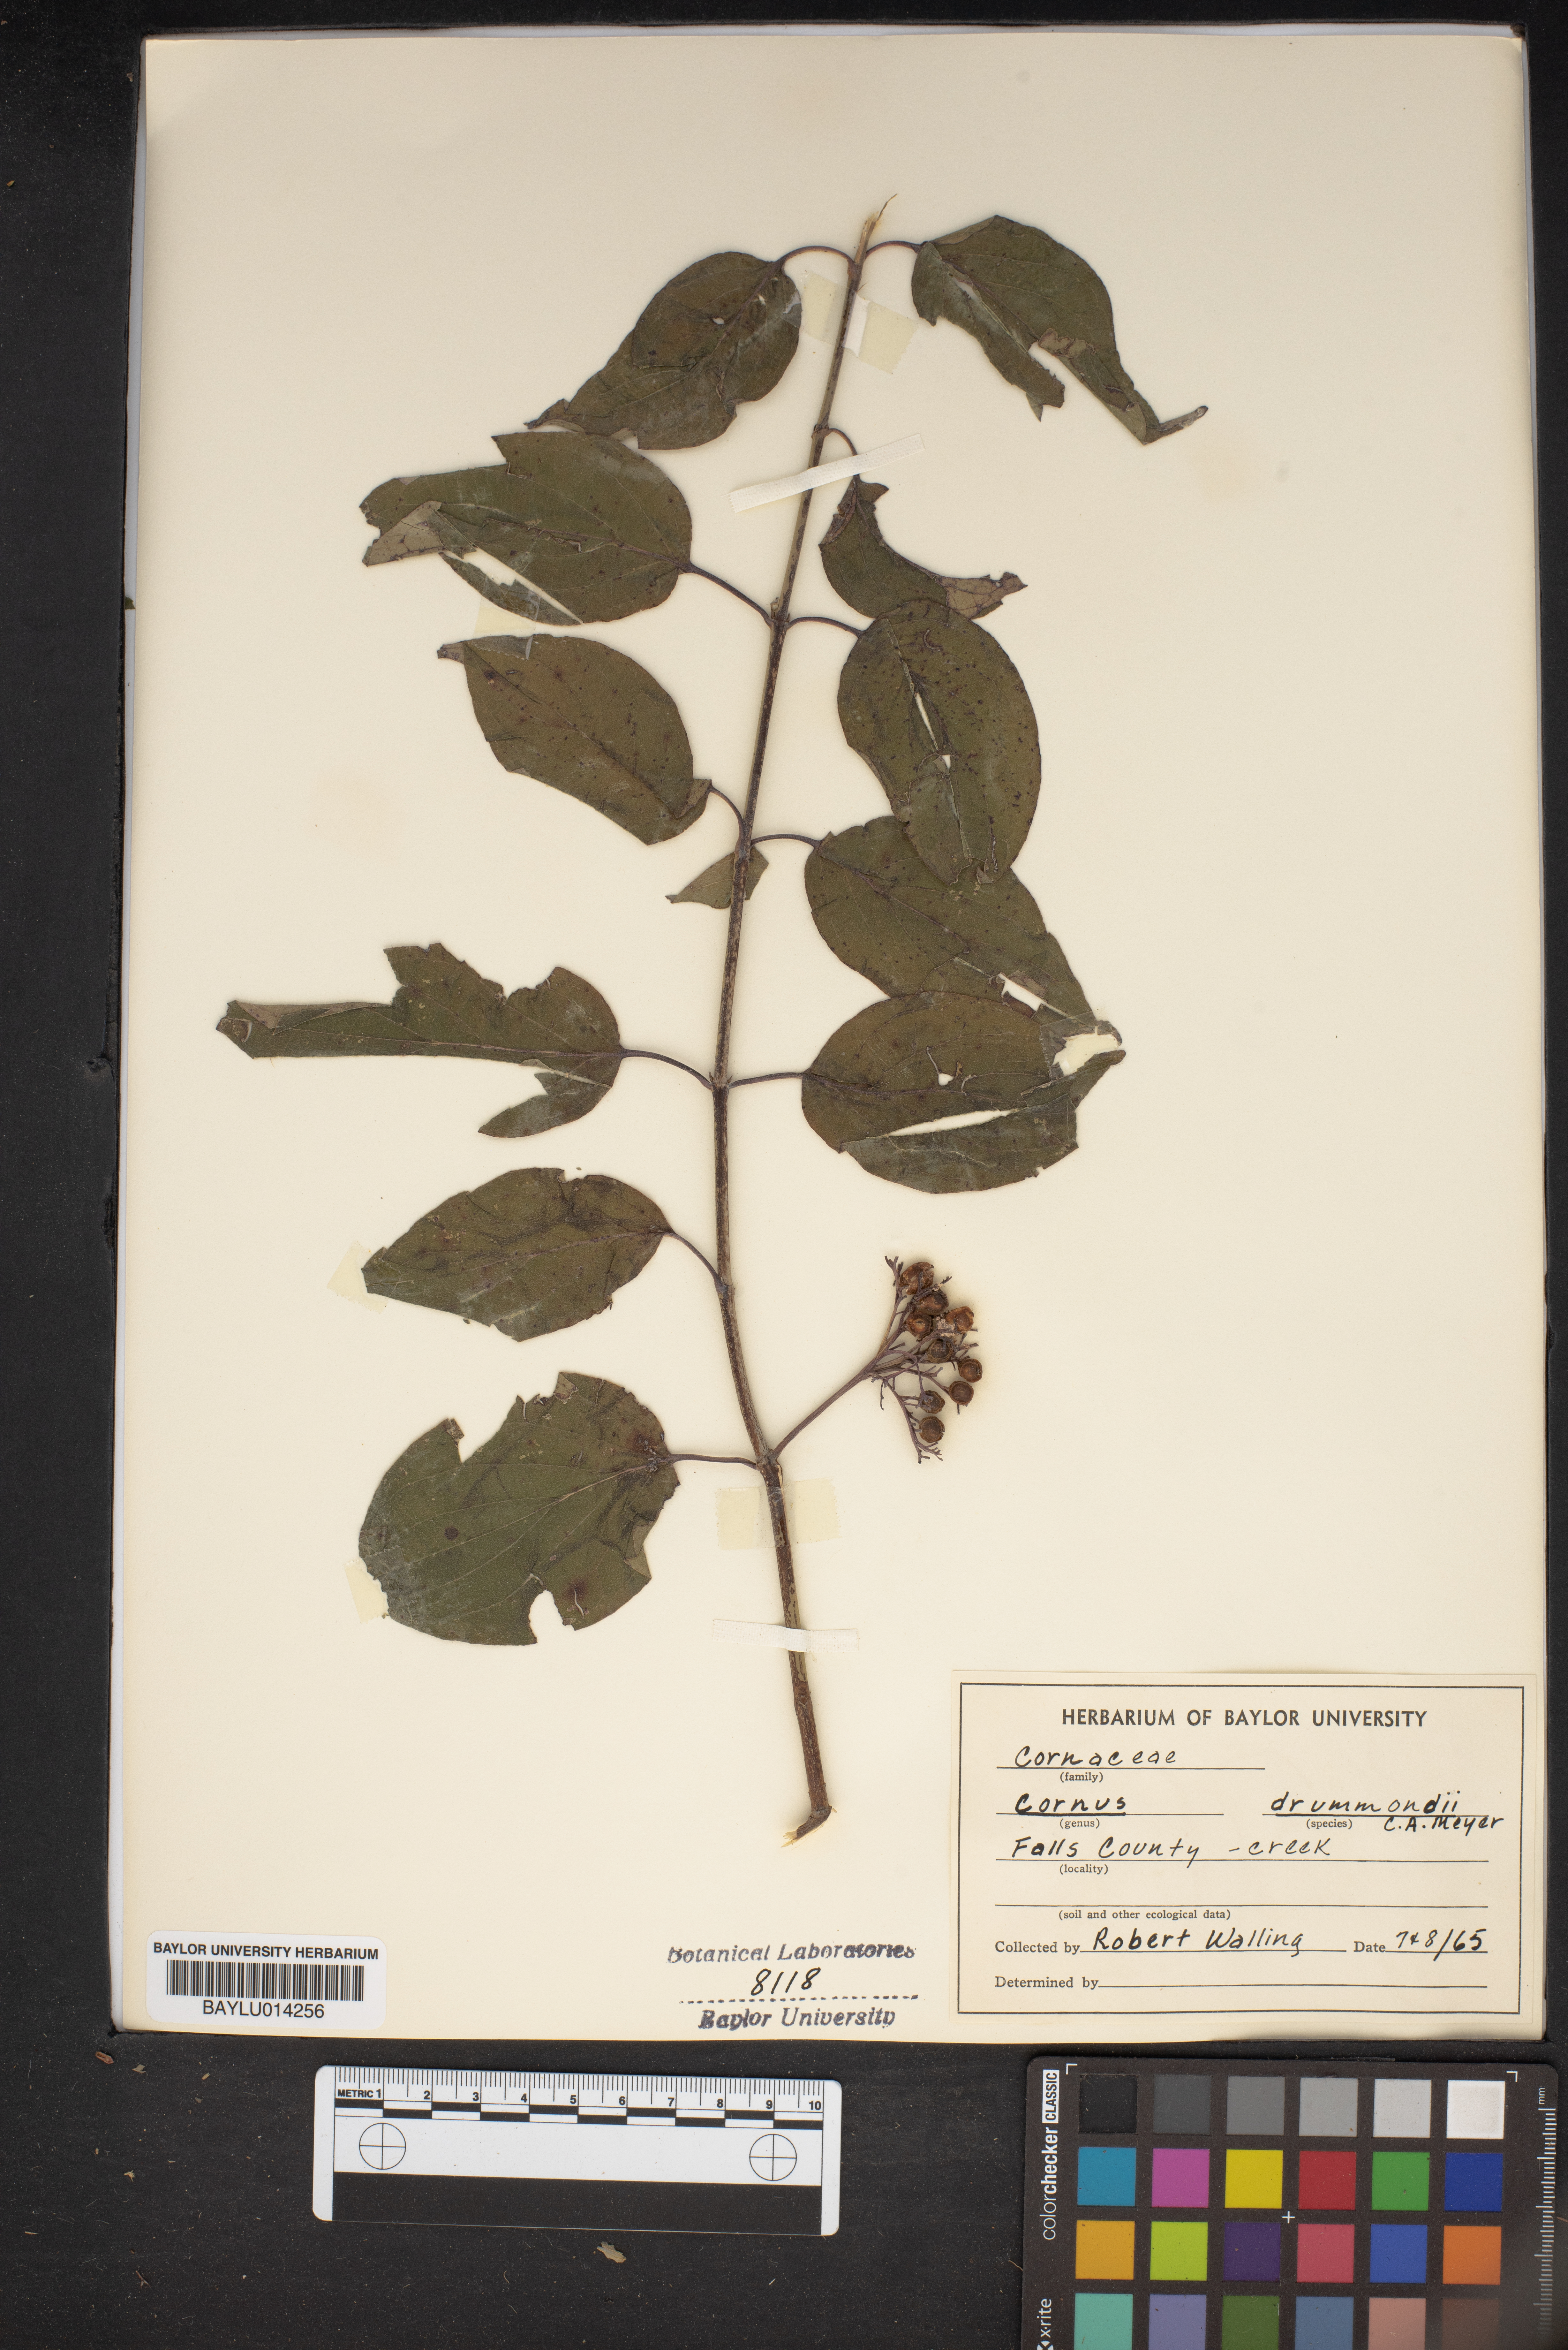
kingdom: Plantae
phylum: Tracheophyta
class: Magnoliopsida
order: Cornales
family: Cornaceae
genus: Cornus
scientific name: Cornus drummondii
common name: Rough-leaf dogwood
